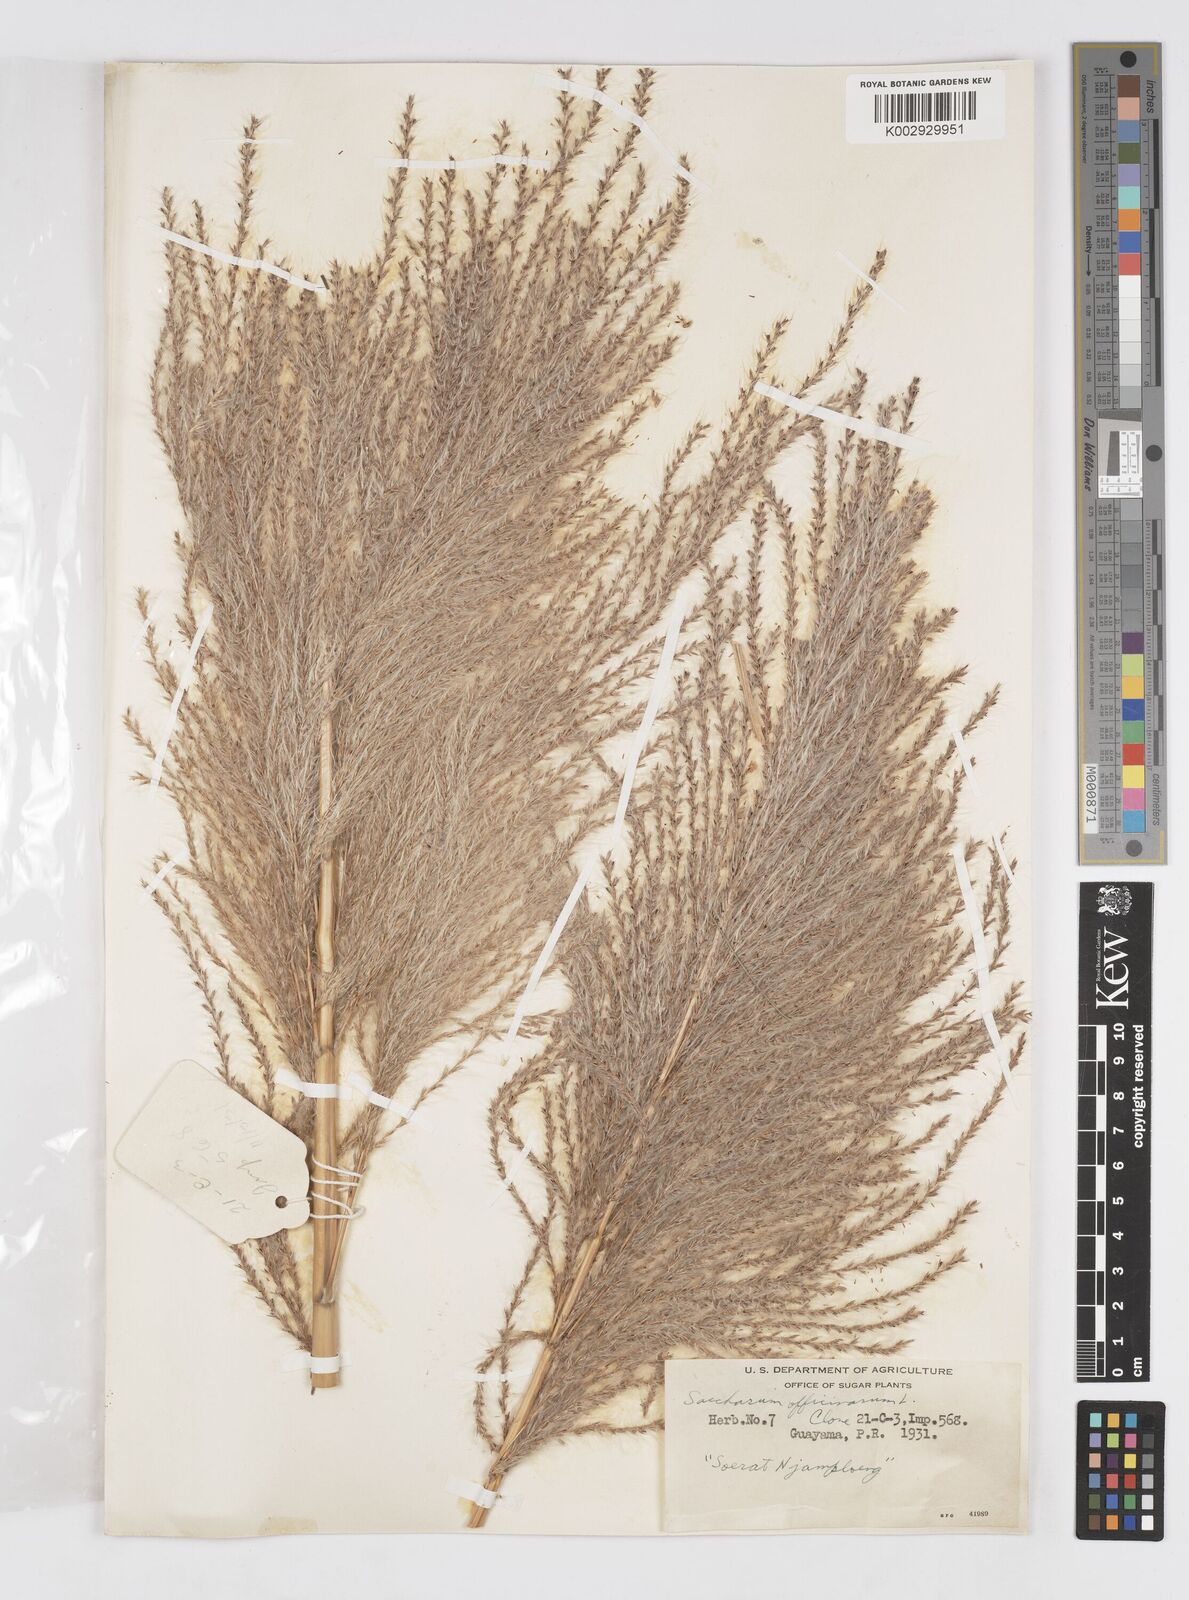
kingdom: Plantae
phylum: Tracheophyta
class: Liliopsida
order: Poales
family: Poaceae
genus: Saccharum
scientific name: Saccharum officinarum
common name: Sugarcane
